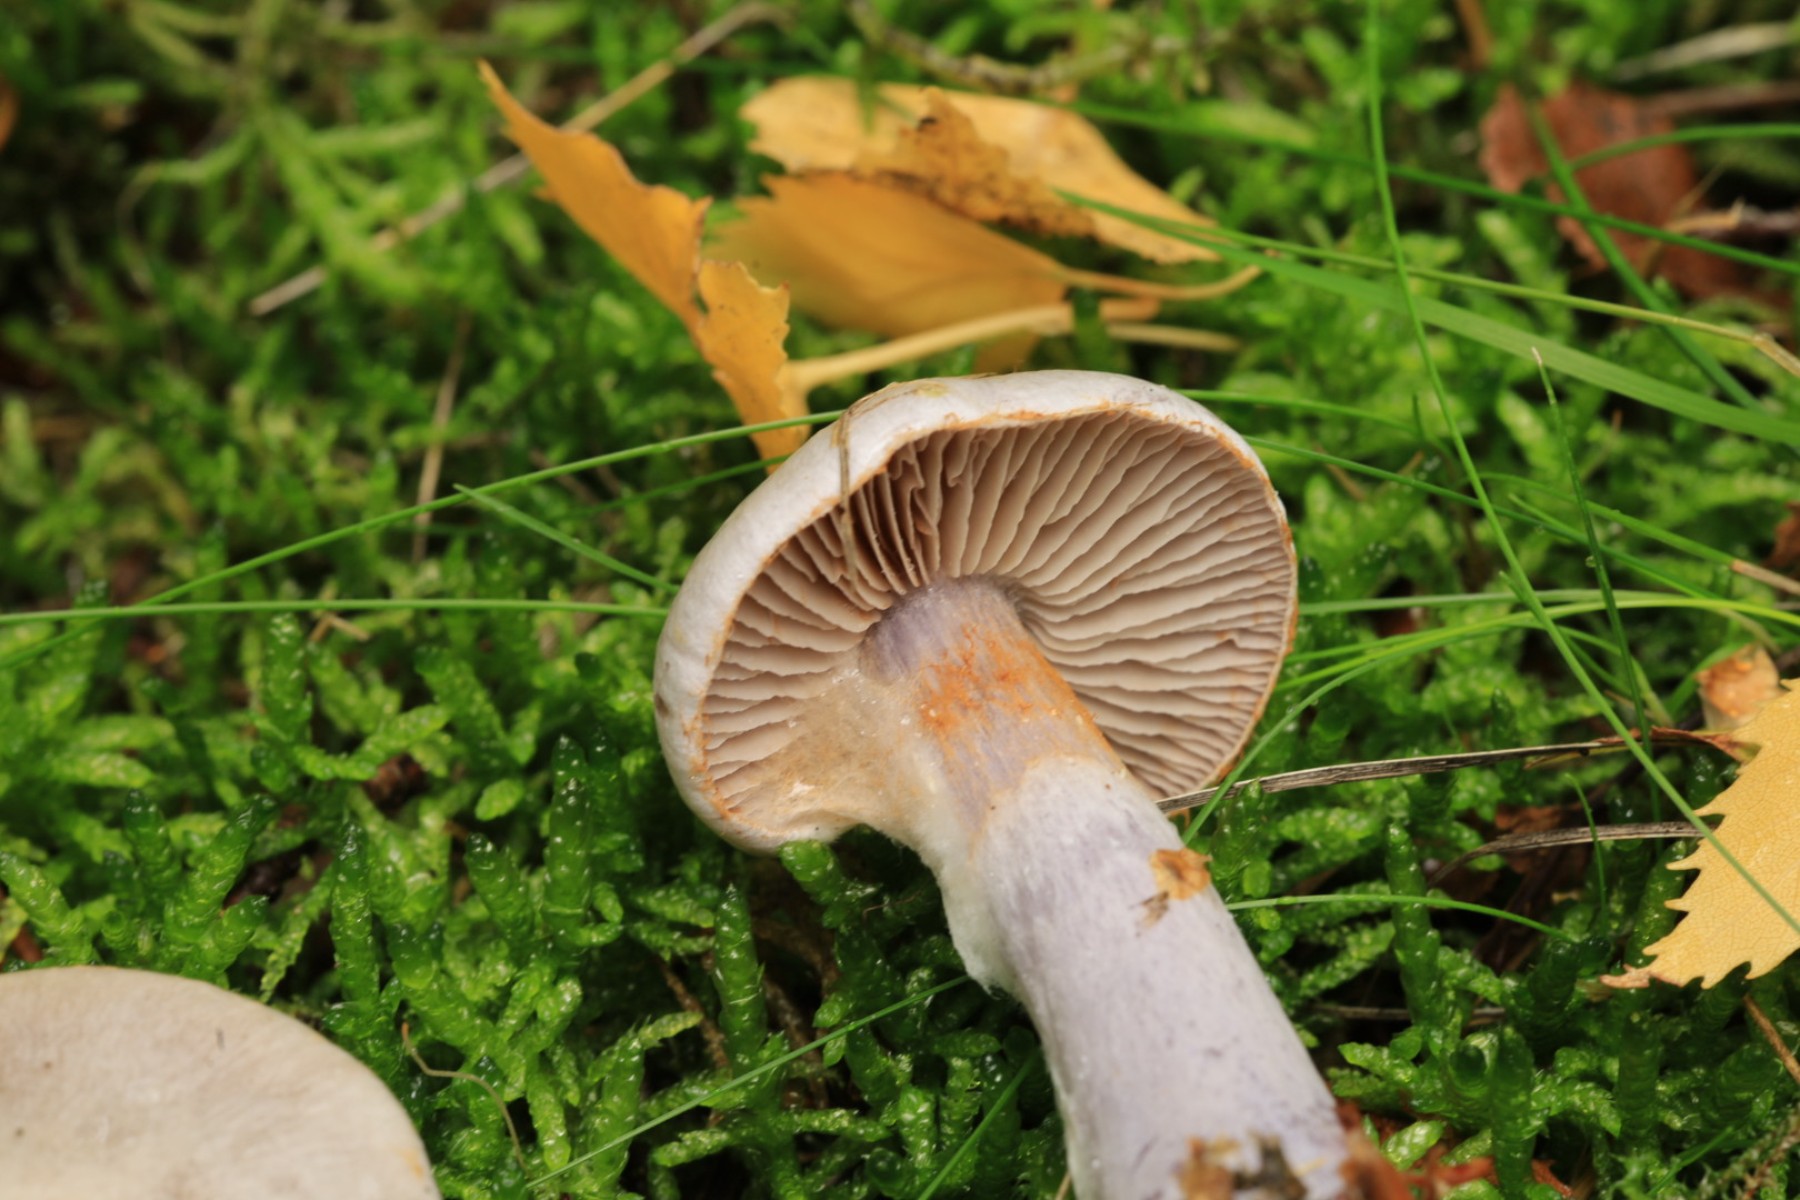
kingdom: Fungi
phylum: Basidiomycota
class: Agaricomycetes
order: Agaricales
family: Cortinariaceae
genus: Cortinarius
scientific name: Cortinarius
